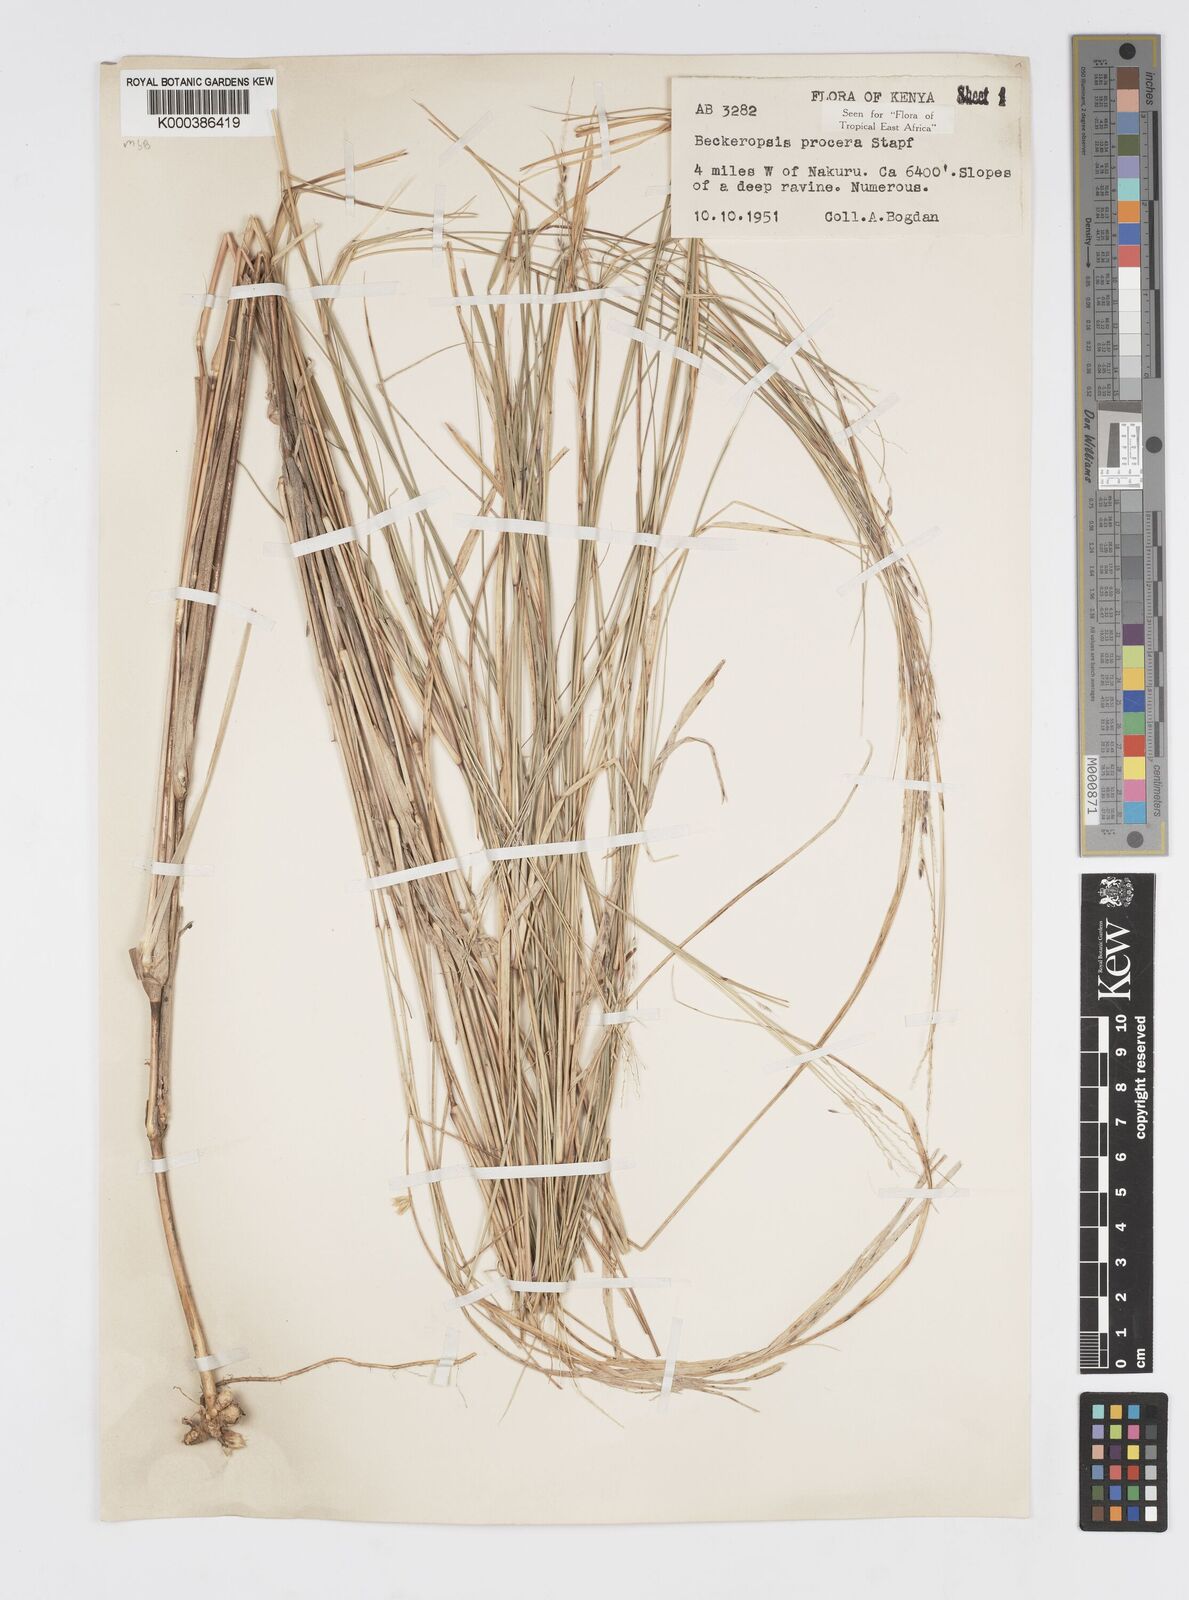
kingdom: Plantae
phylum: Tracheophyta
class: Liliopsida
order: Poales
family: Poaceae
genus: Cenchrus
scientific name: Cenchrus procerus
